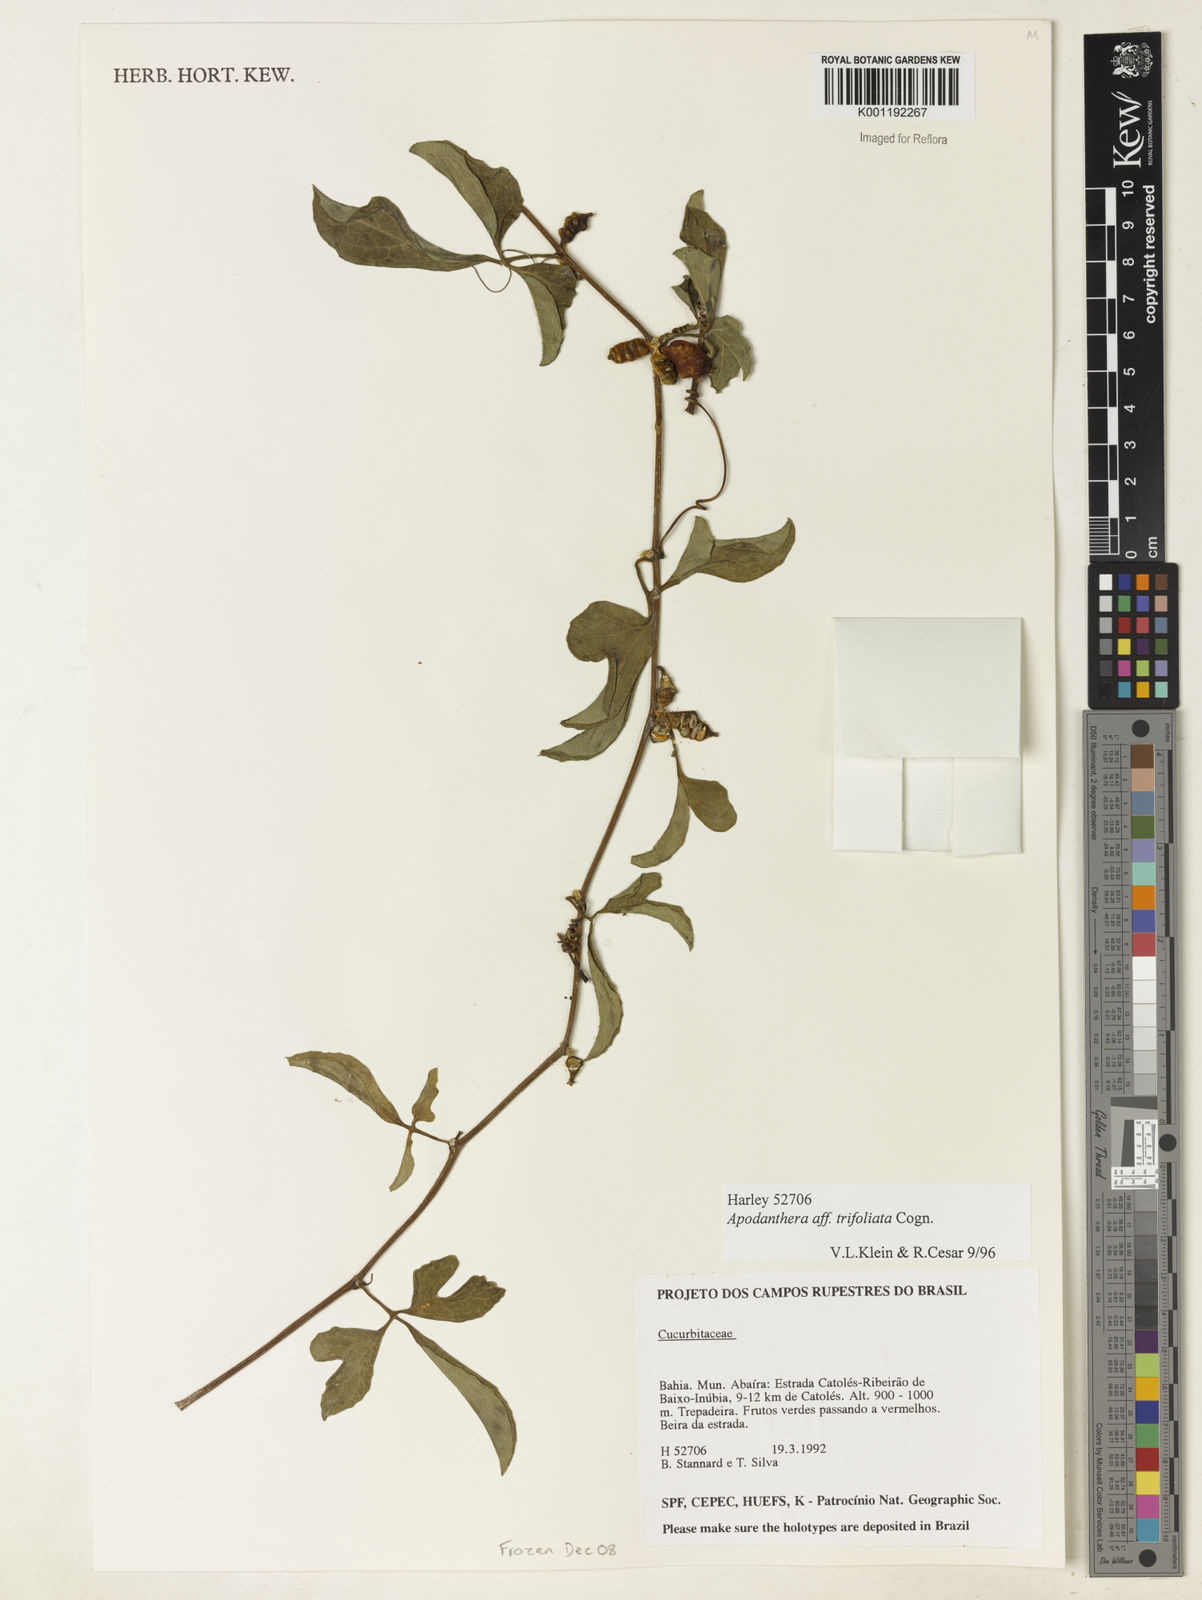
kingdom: Plantae
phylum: Tracheophyta
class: Magnoliopsida
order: Cucurbitales
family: Cucurbitaceae
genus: Apodanthera
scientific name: Apodanthera trifoliata
